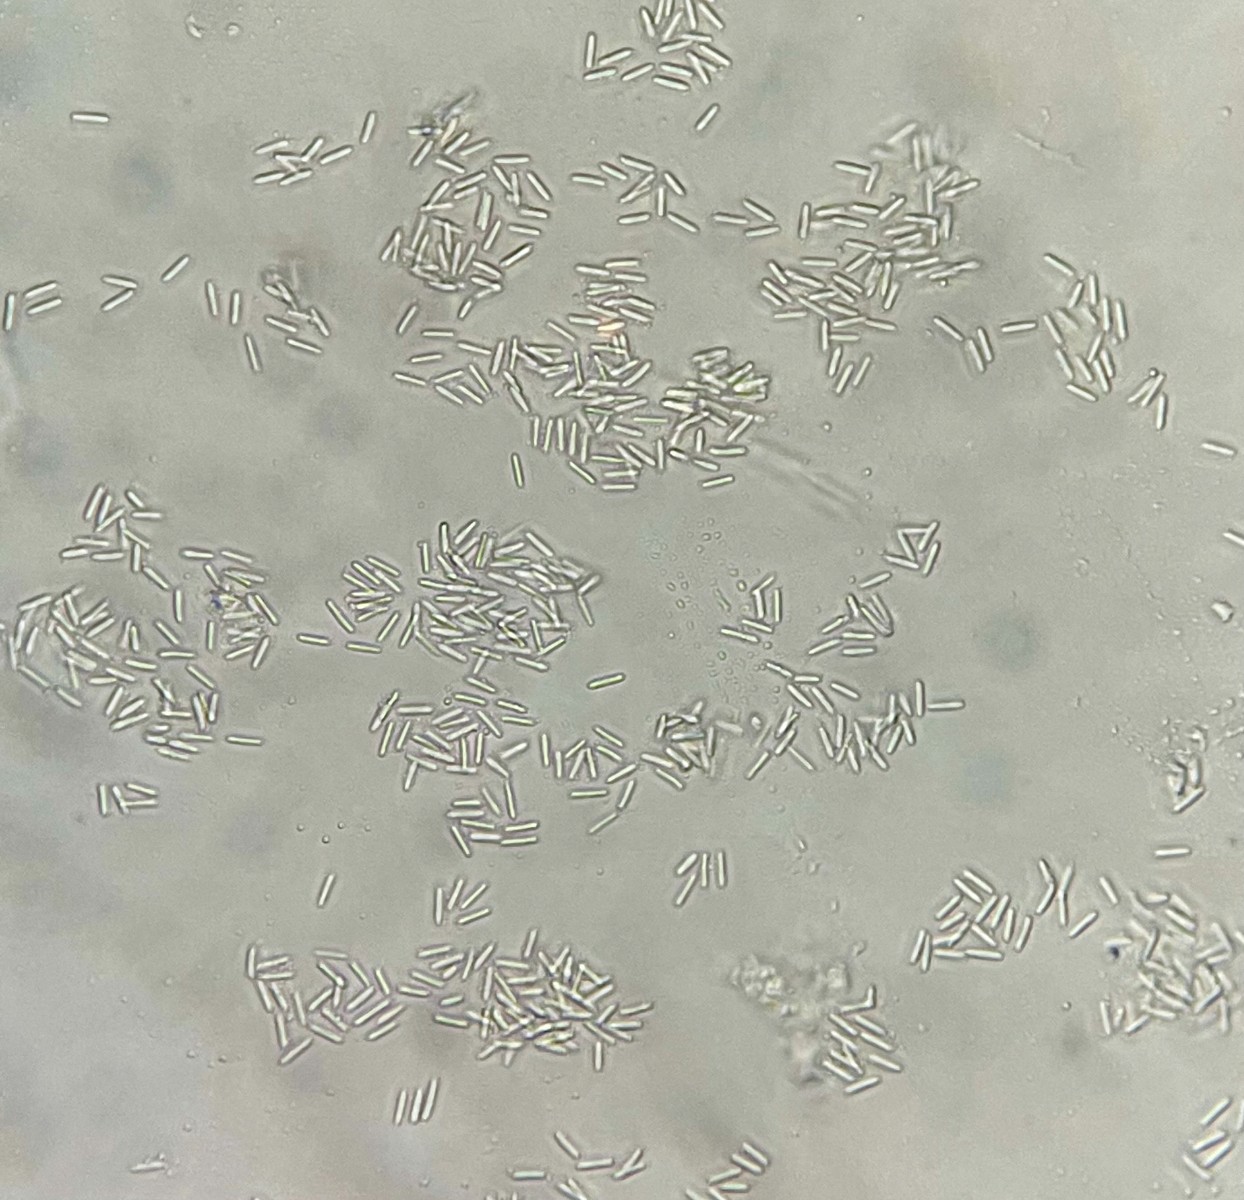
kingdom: Fungi
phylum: Ascomycota
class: Dothideomycetes
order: Pleosporales
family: Cucurbitariaceae
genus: Pyrenochaeta
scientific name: Pyrenochaeta nobilis
